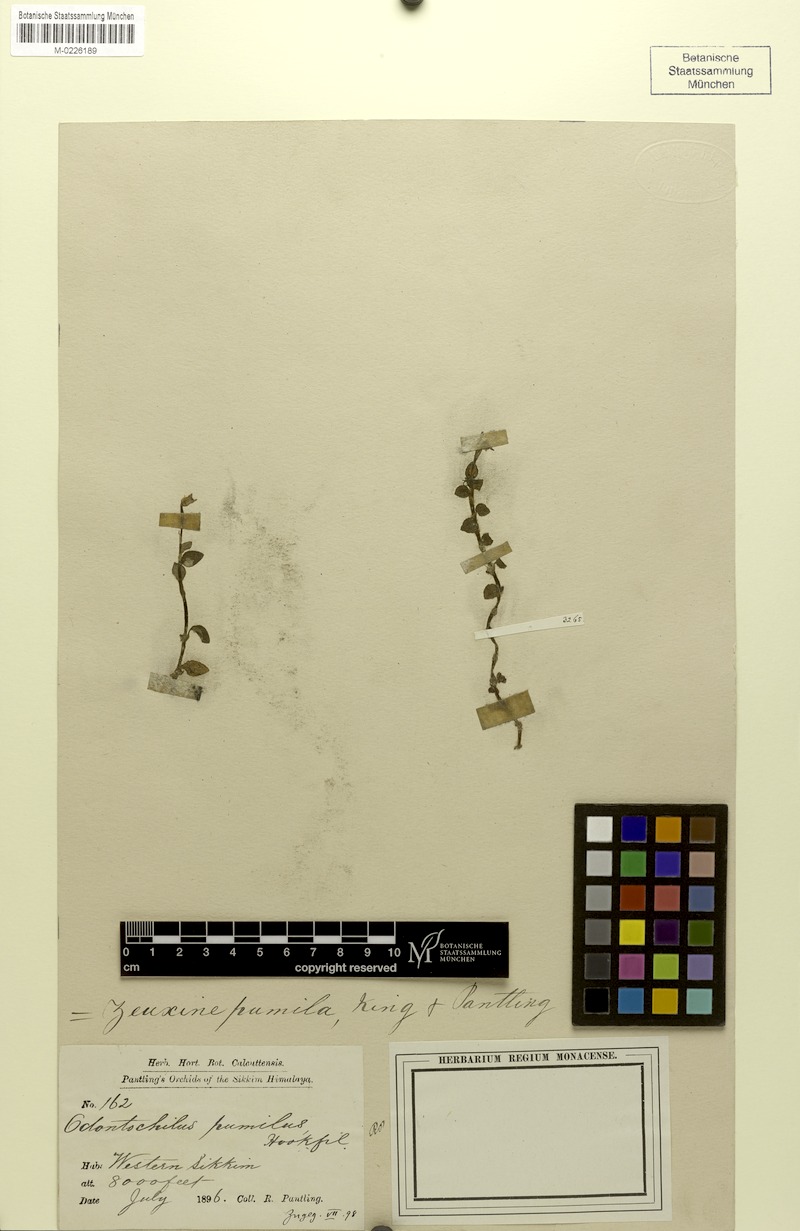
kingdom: Plantae
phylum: Tracheophyta
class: Liliopsida
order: Asparagales
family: Orchidaceae
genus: Odontochilus
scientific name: Odontochilus pumilus
